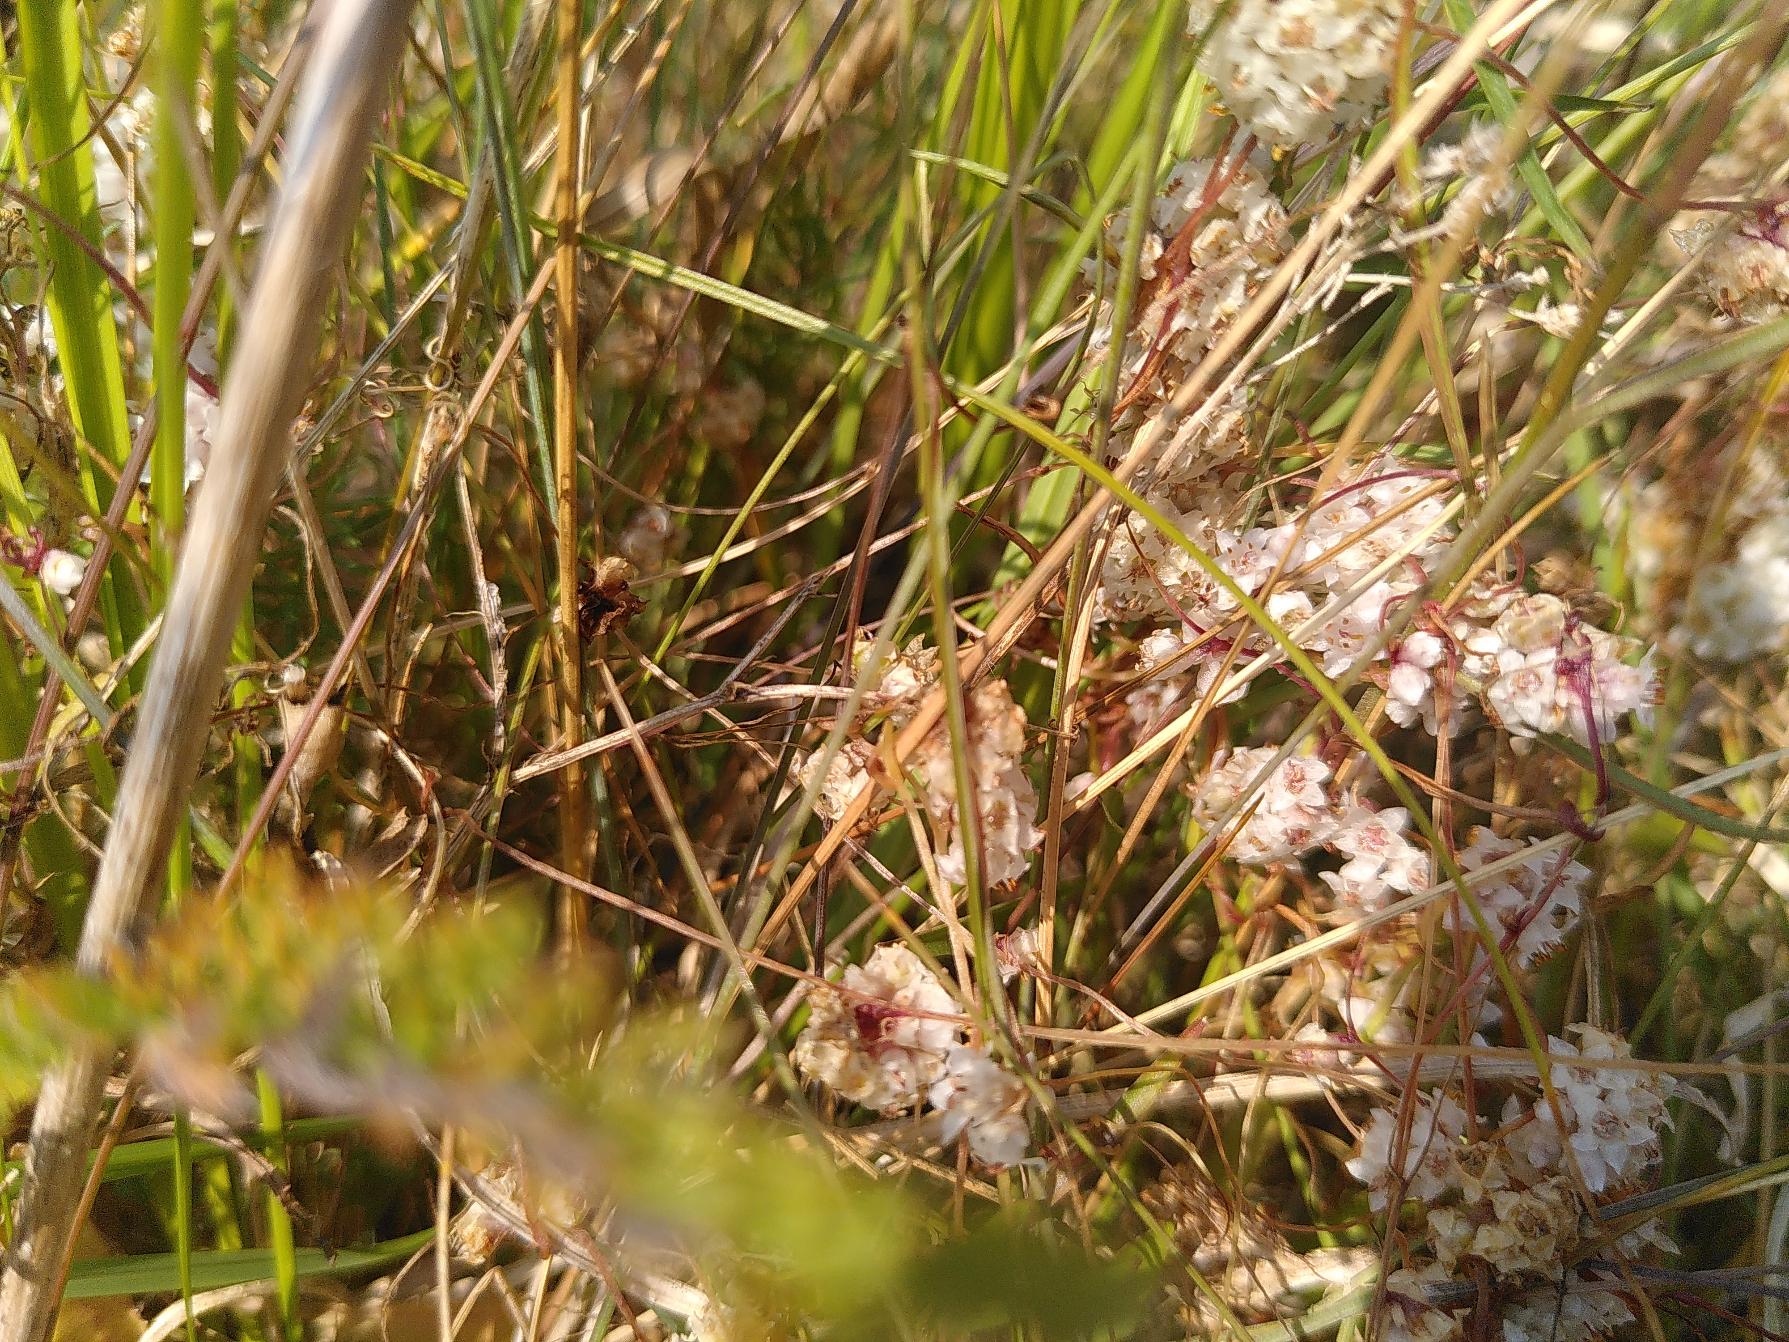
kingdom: Plantae
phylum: Tracheophyta
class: Magnoliopsida
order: Solanales
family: Convolvulaceae
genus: Cuscuta
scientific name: Cuscuta epithymum
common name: Lyng-silke
